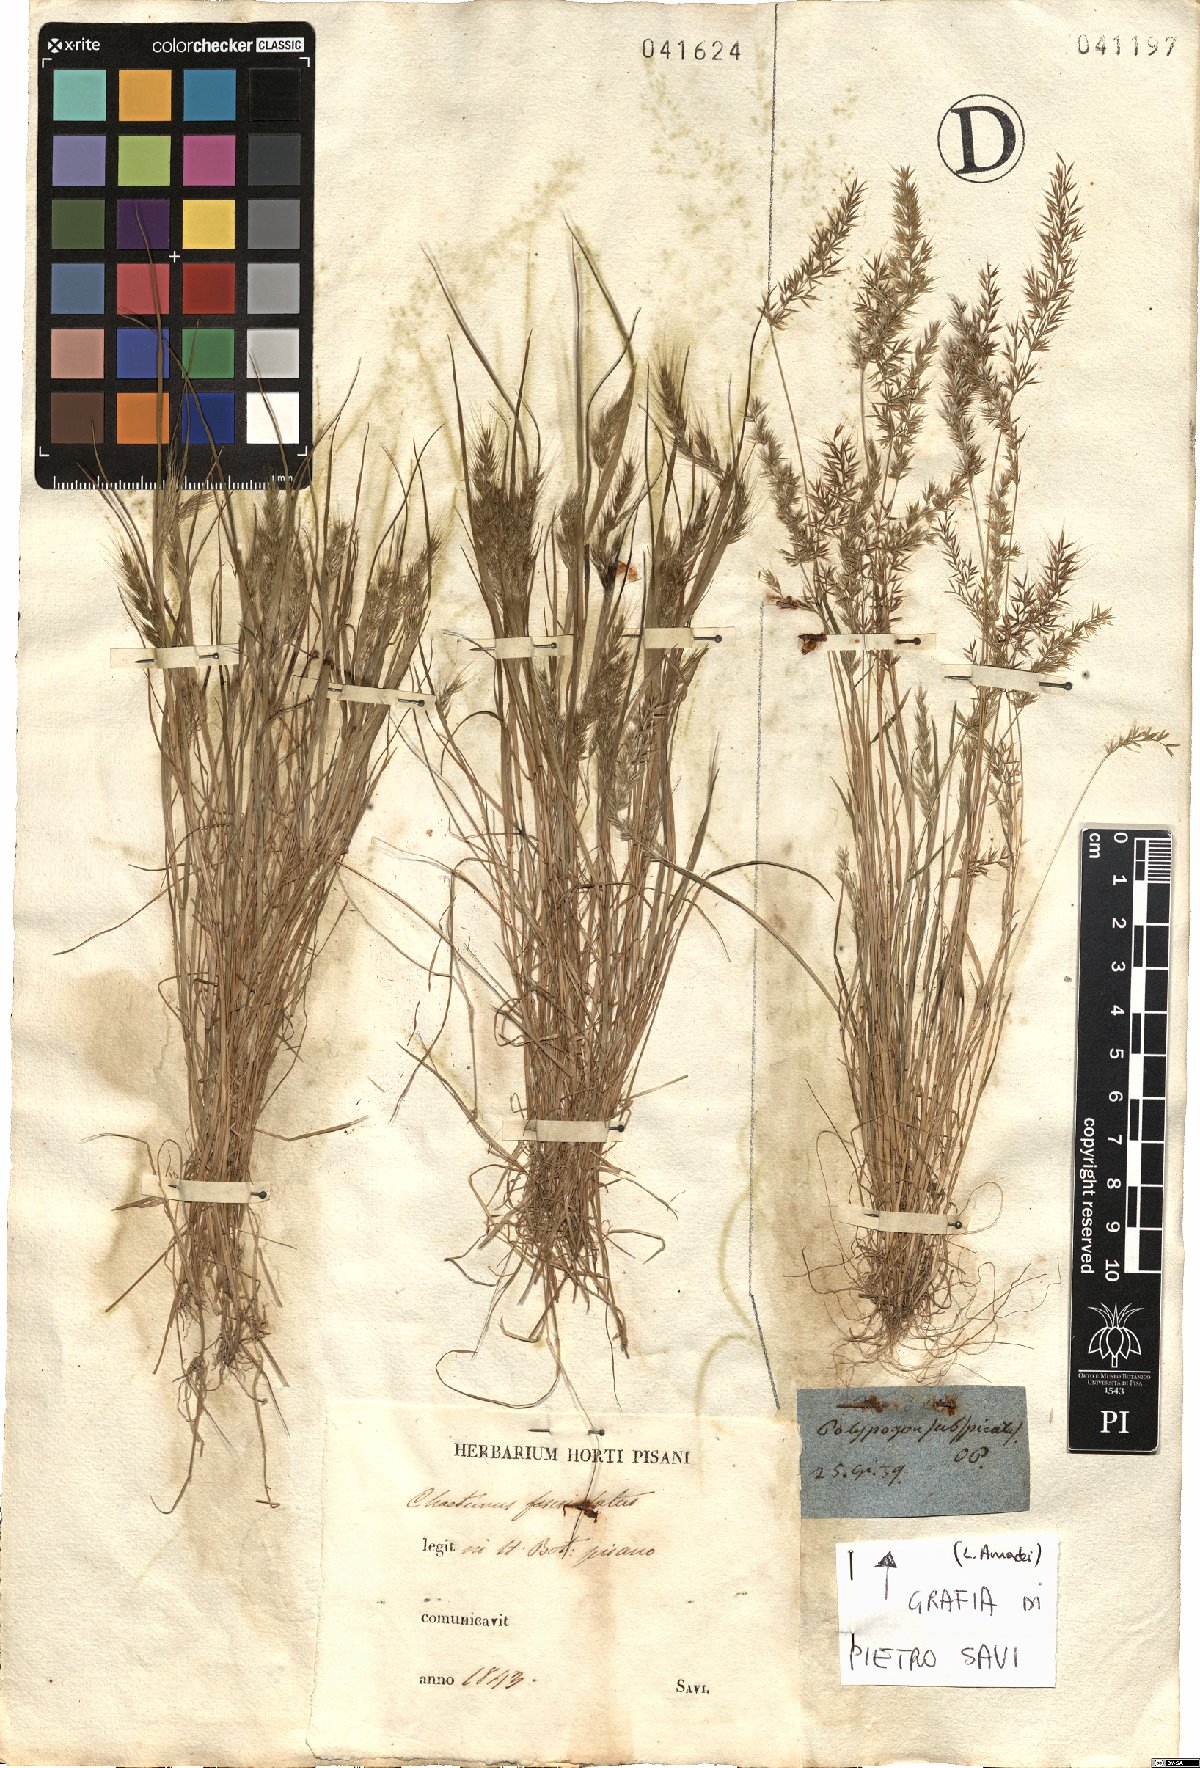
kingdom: Plantae
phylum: Tracheophyta
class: Liliopsida
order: Poales
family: Poaceae
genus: Agrostis
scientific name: Agrostis subspicata
